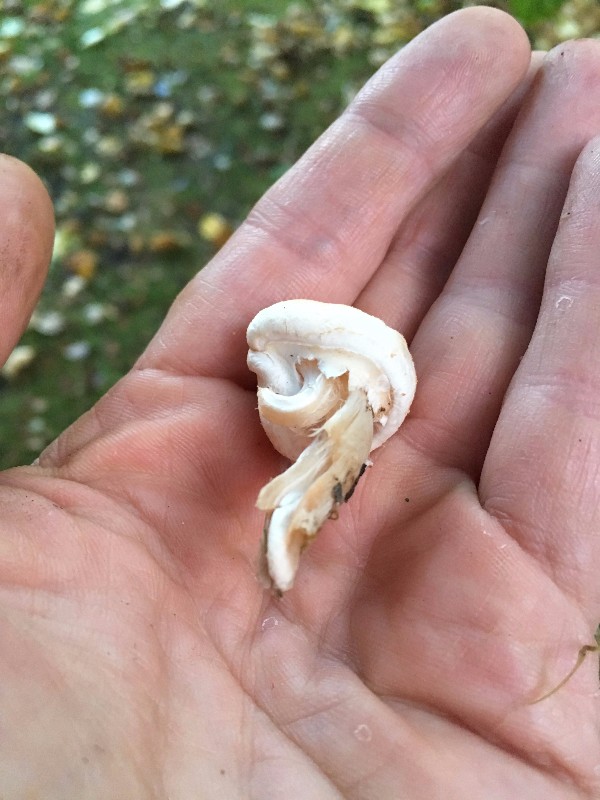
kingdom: Fungi
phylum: Basidiomycota
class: Agaricomycetes
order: Agaricales
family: Agaricaceae
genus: Lepiota
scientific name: Lepiota cristata
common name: stinkende parasolhat
